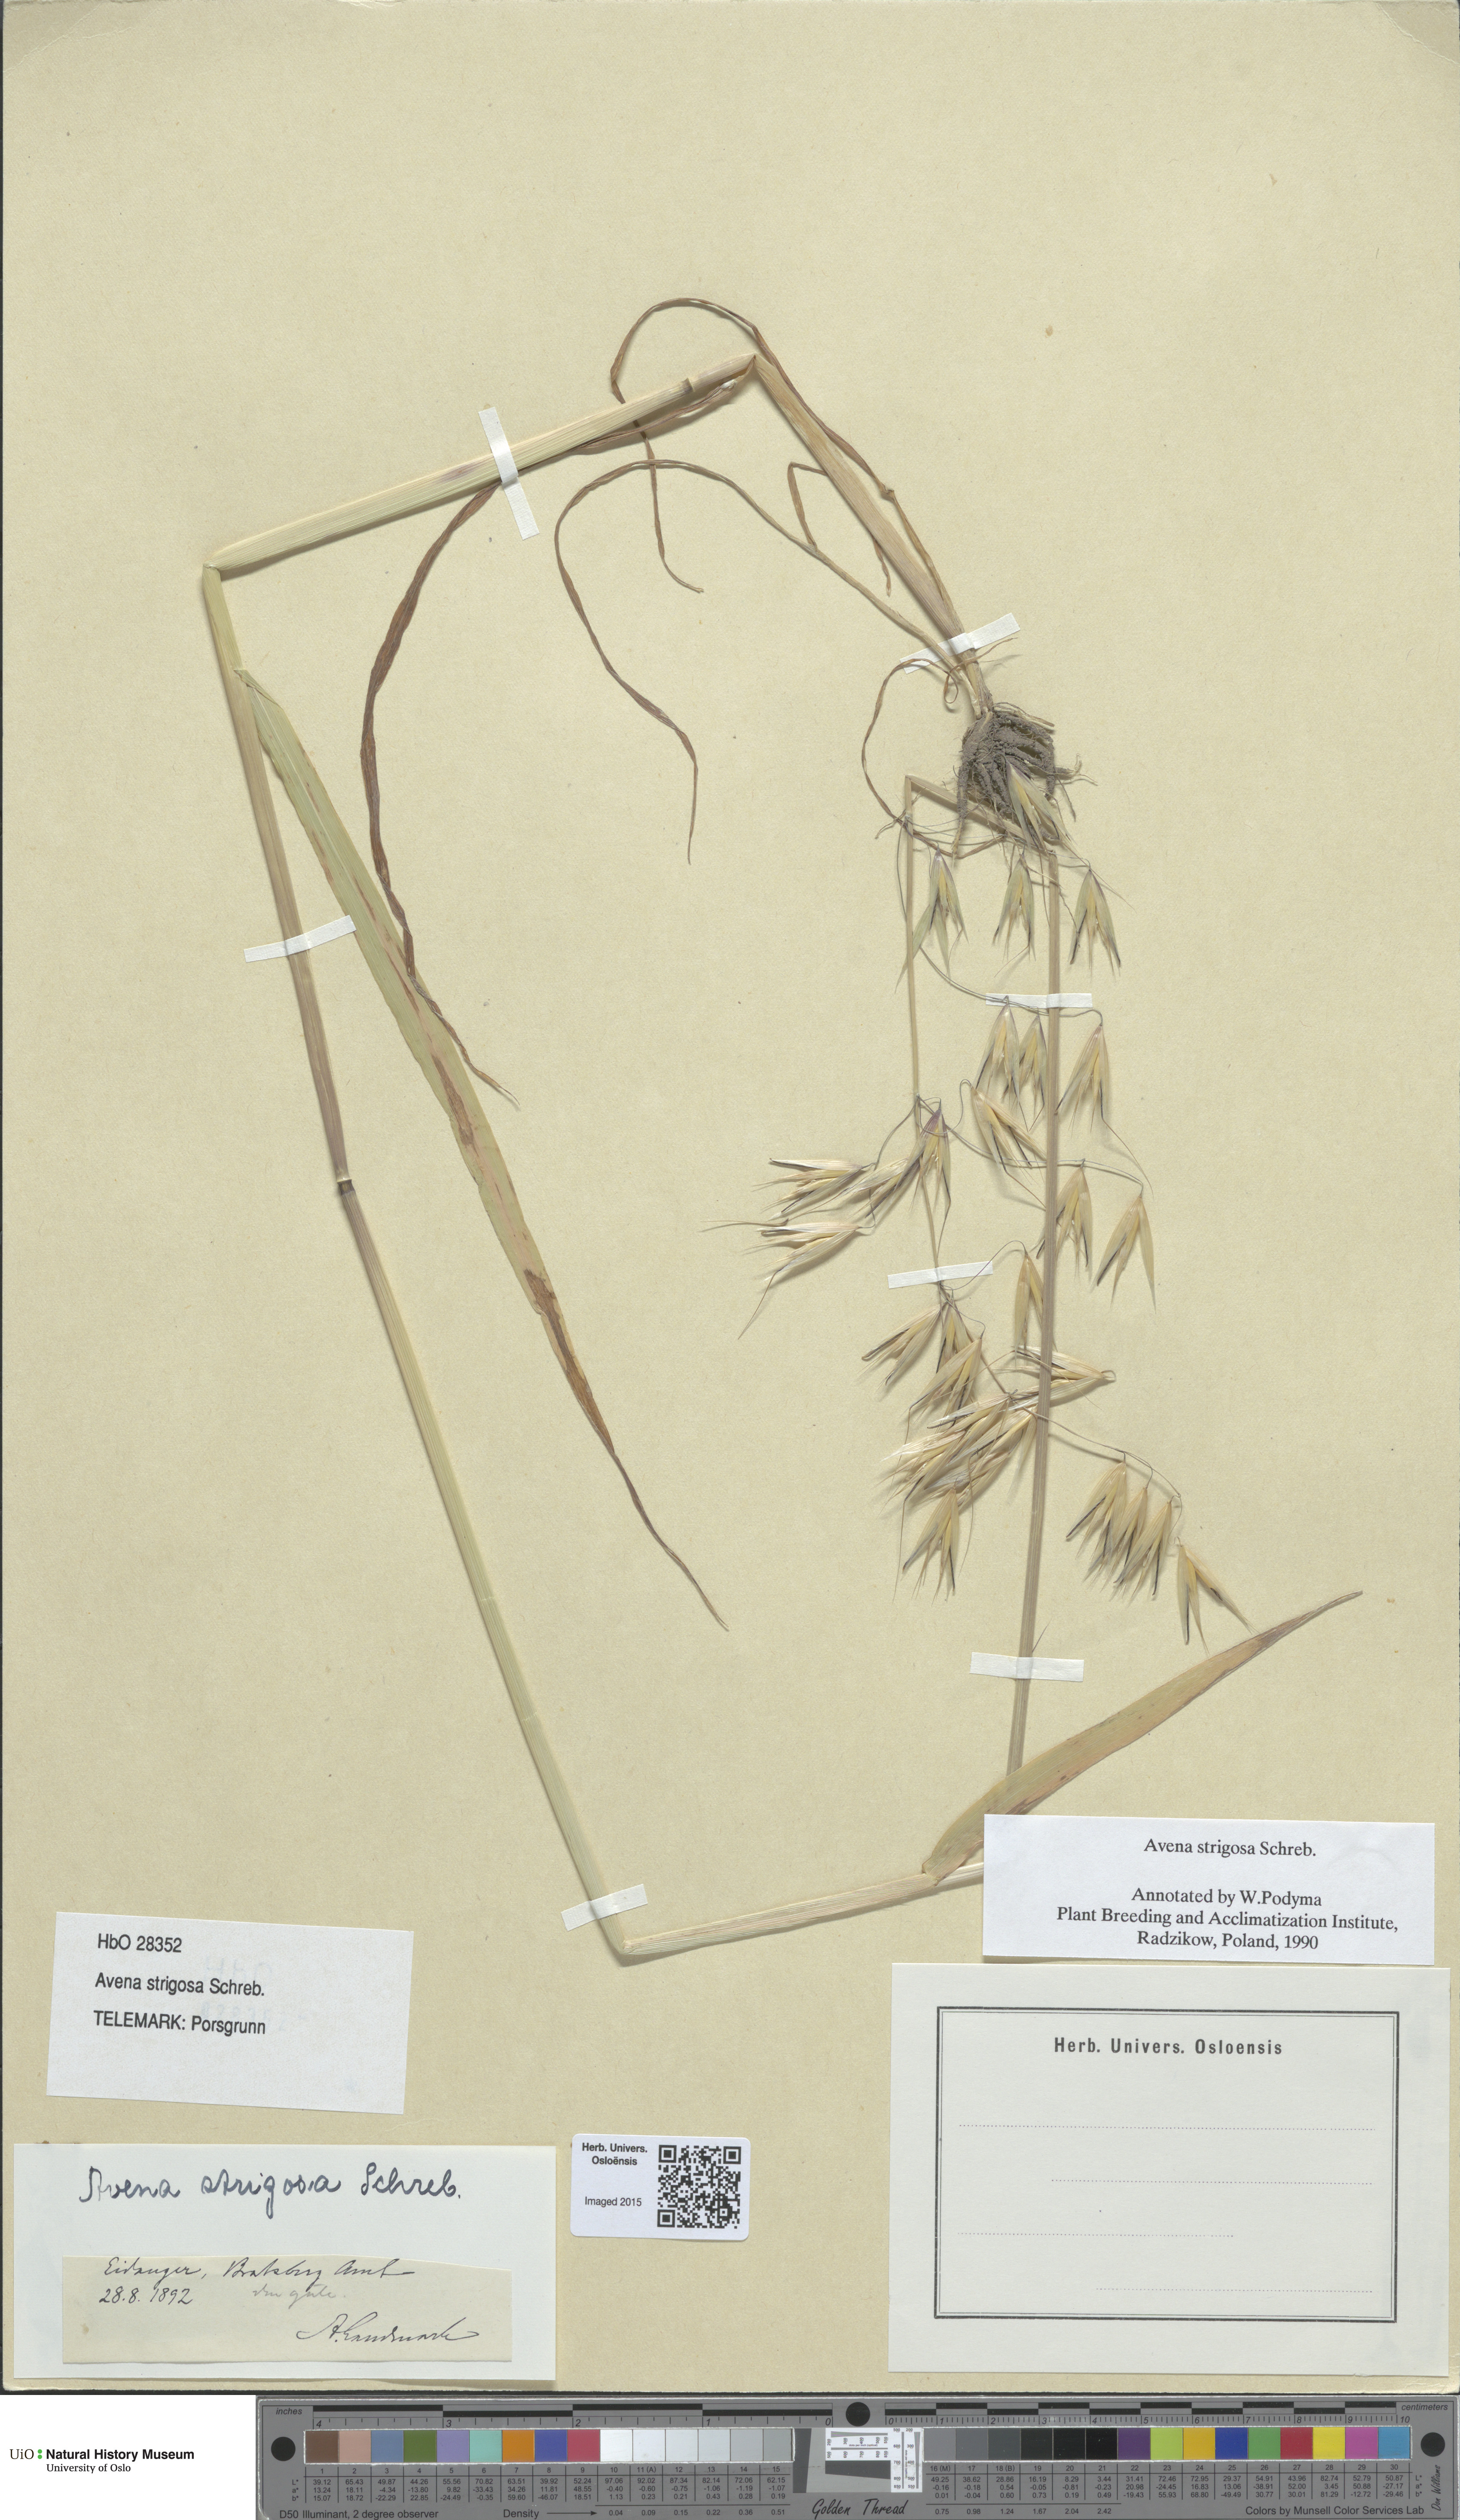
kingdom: Plantae
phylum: Tracheophyta
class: Liliopsida
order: Poales
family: Poaceae
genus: Avena
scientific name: Avena strigosa
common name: Bristle oat
